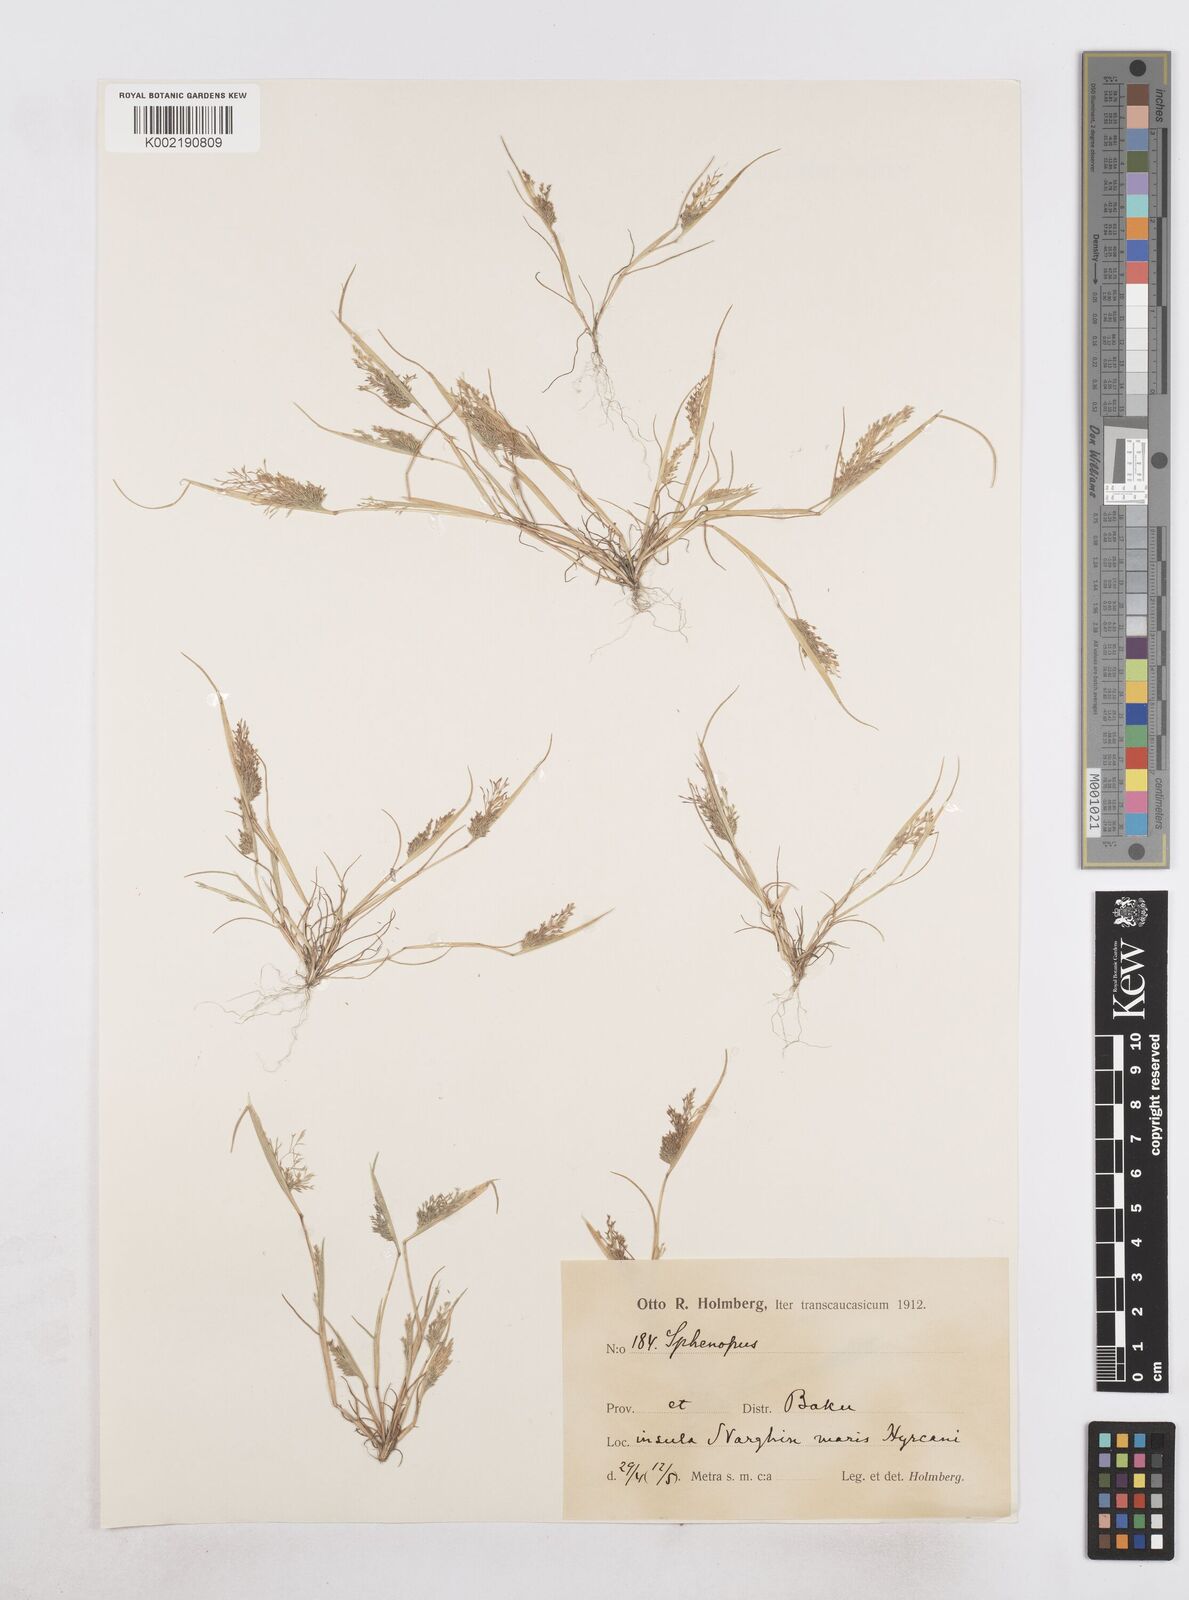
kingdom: Plantae
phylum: Tracheophyta
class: Liliopsida
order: Poales
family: Poaceae
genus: Sphenopus
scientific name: Sphenopus divaricatus
